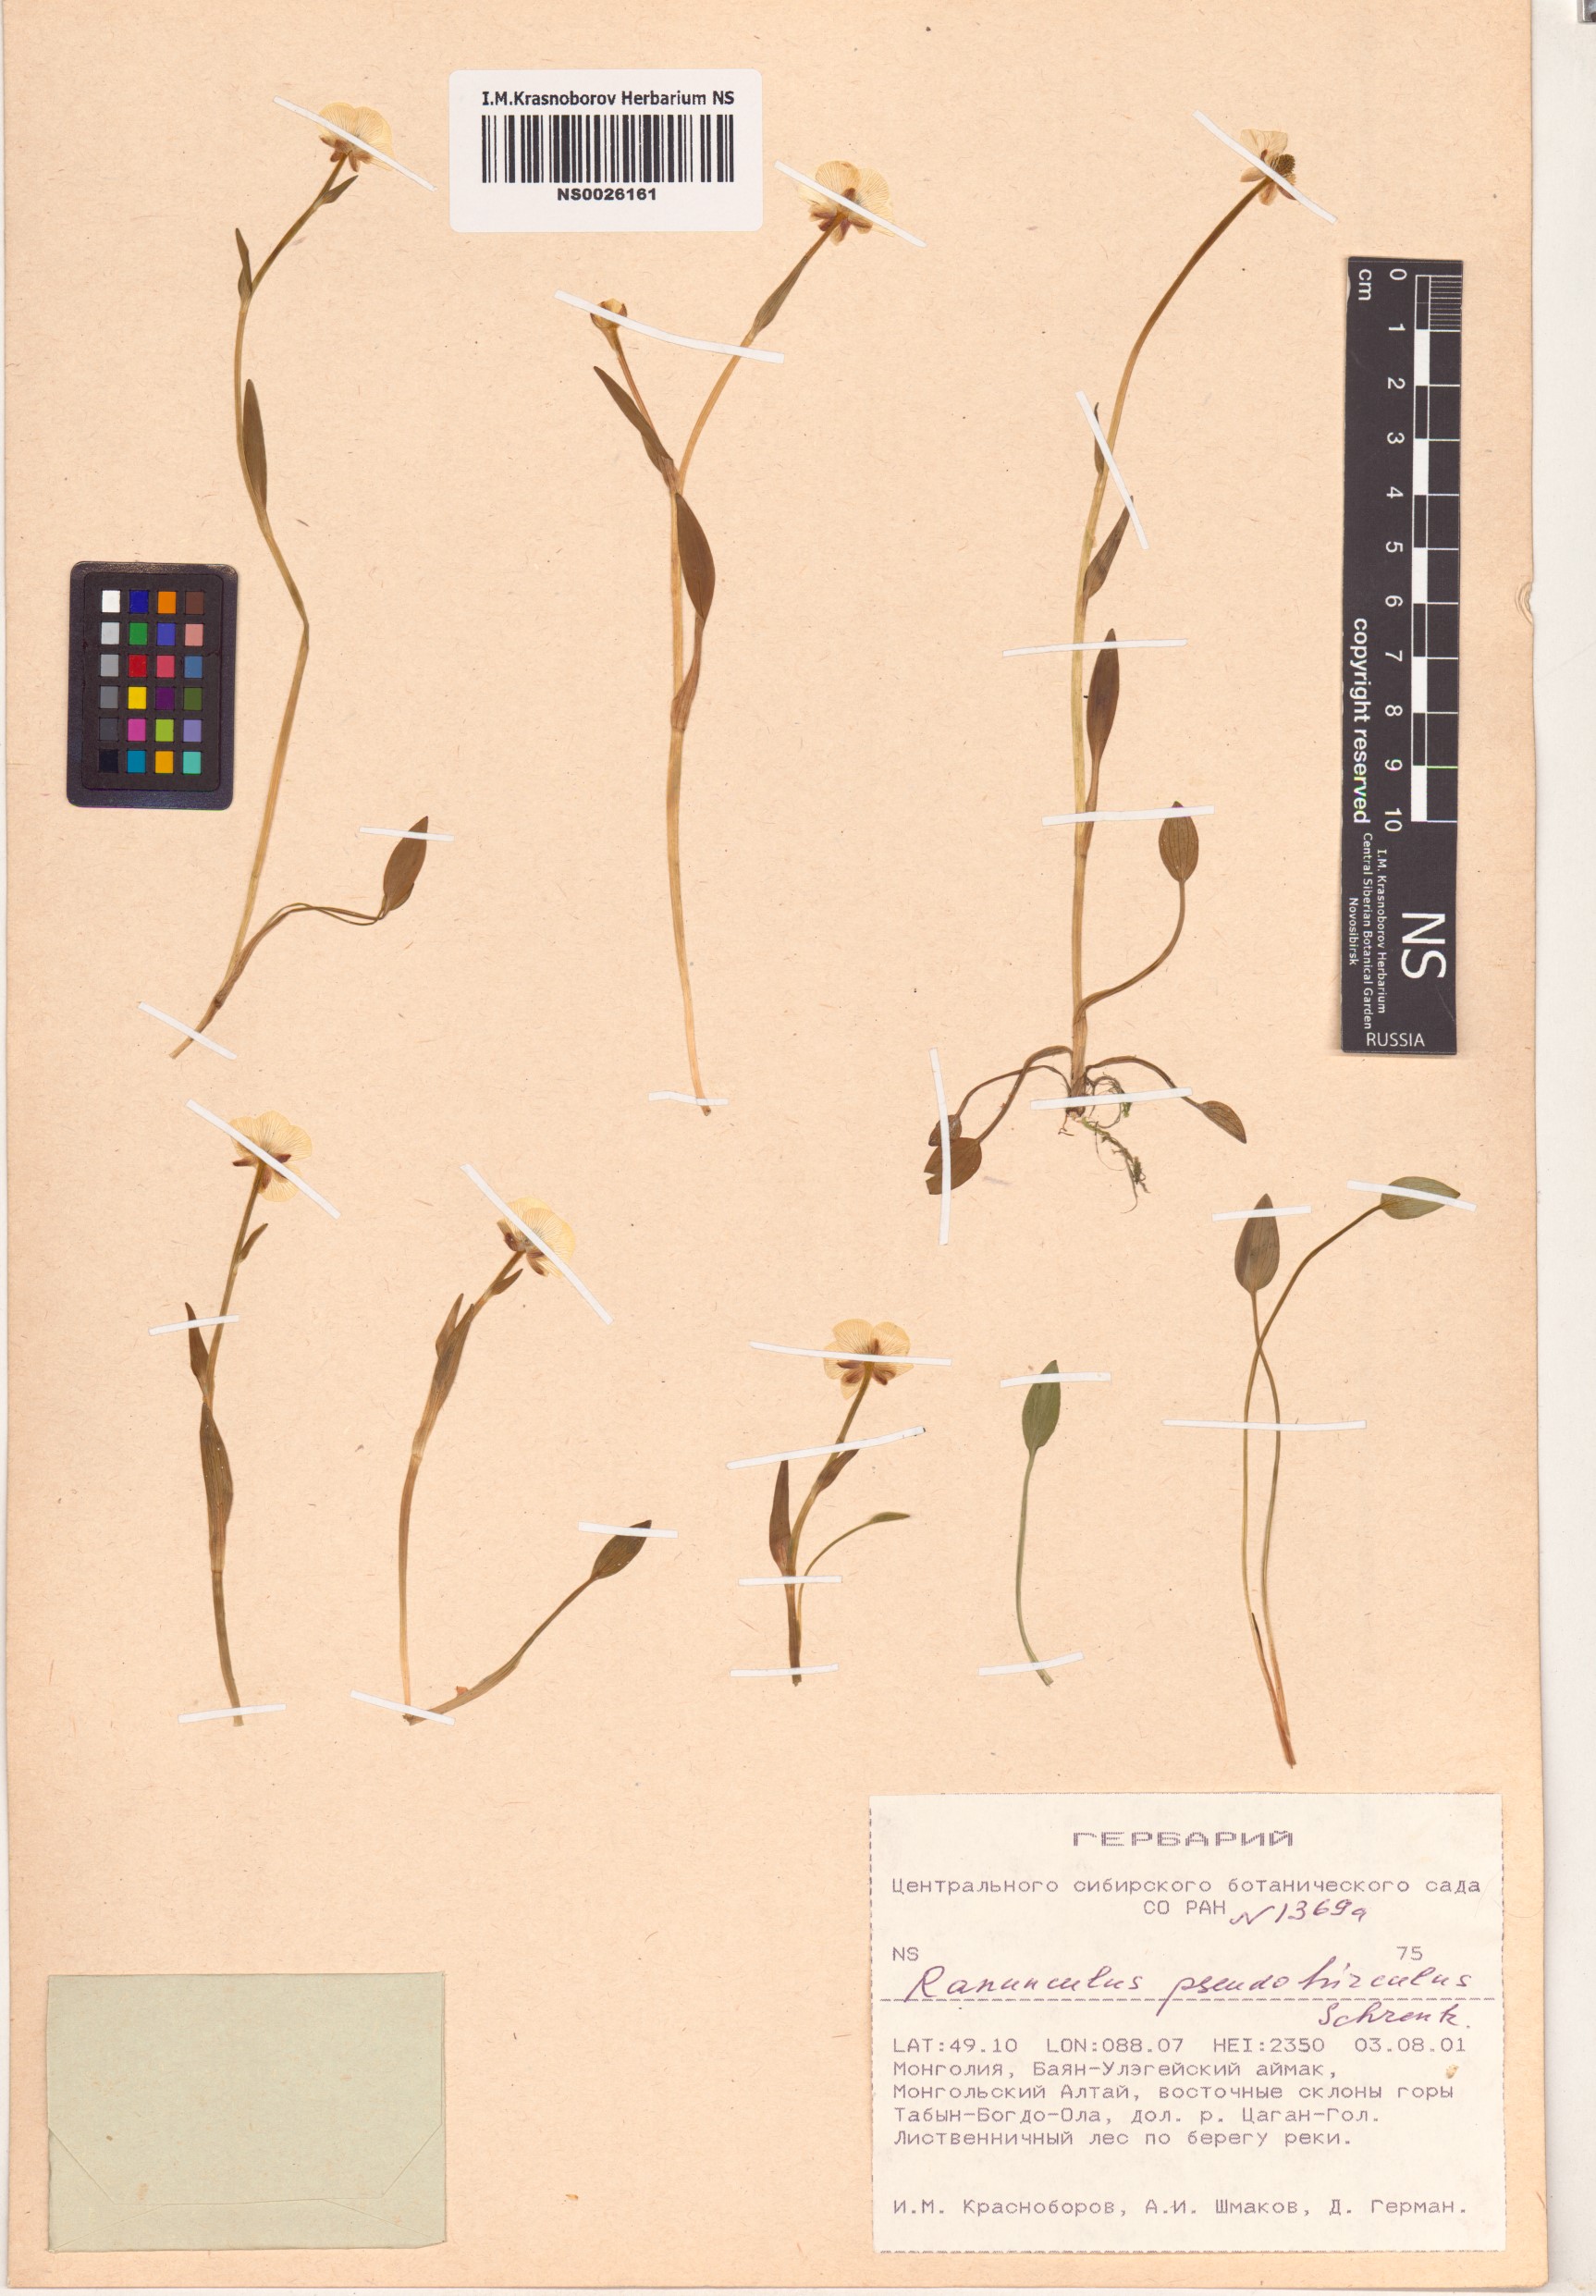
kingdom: Plantae
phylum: Tracheophyta
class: Magnoliopsida
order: Ranunculales
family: Ranunculaceae
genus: Ranunculus
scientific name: Ranunculus pseudohirculus
